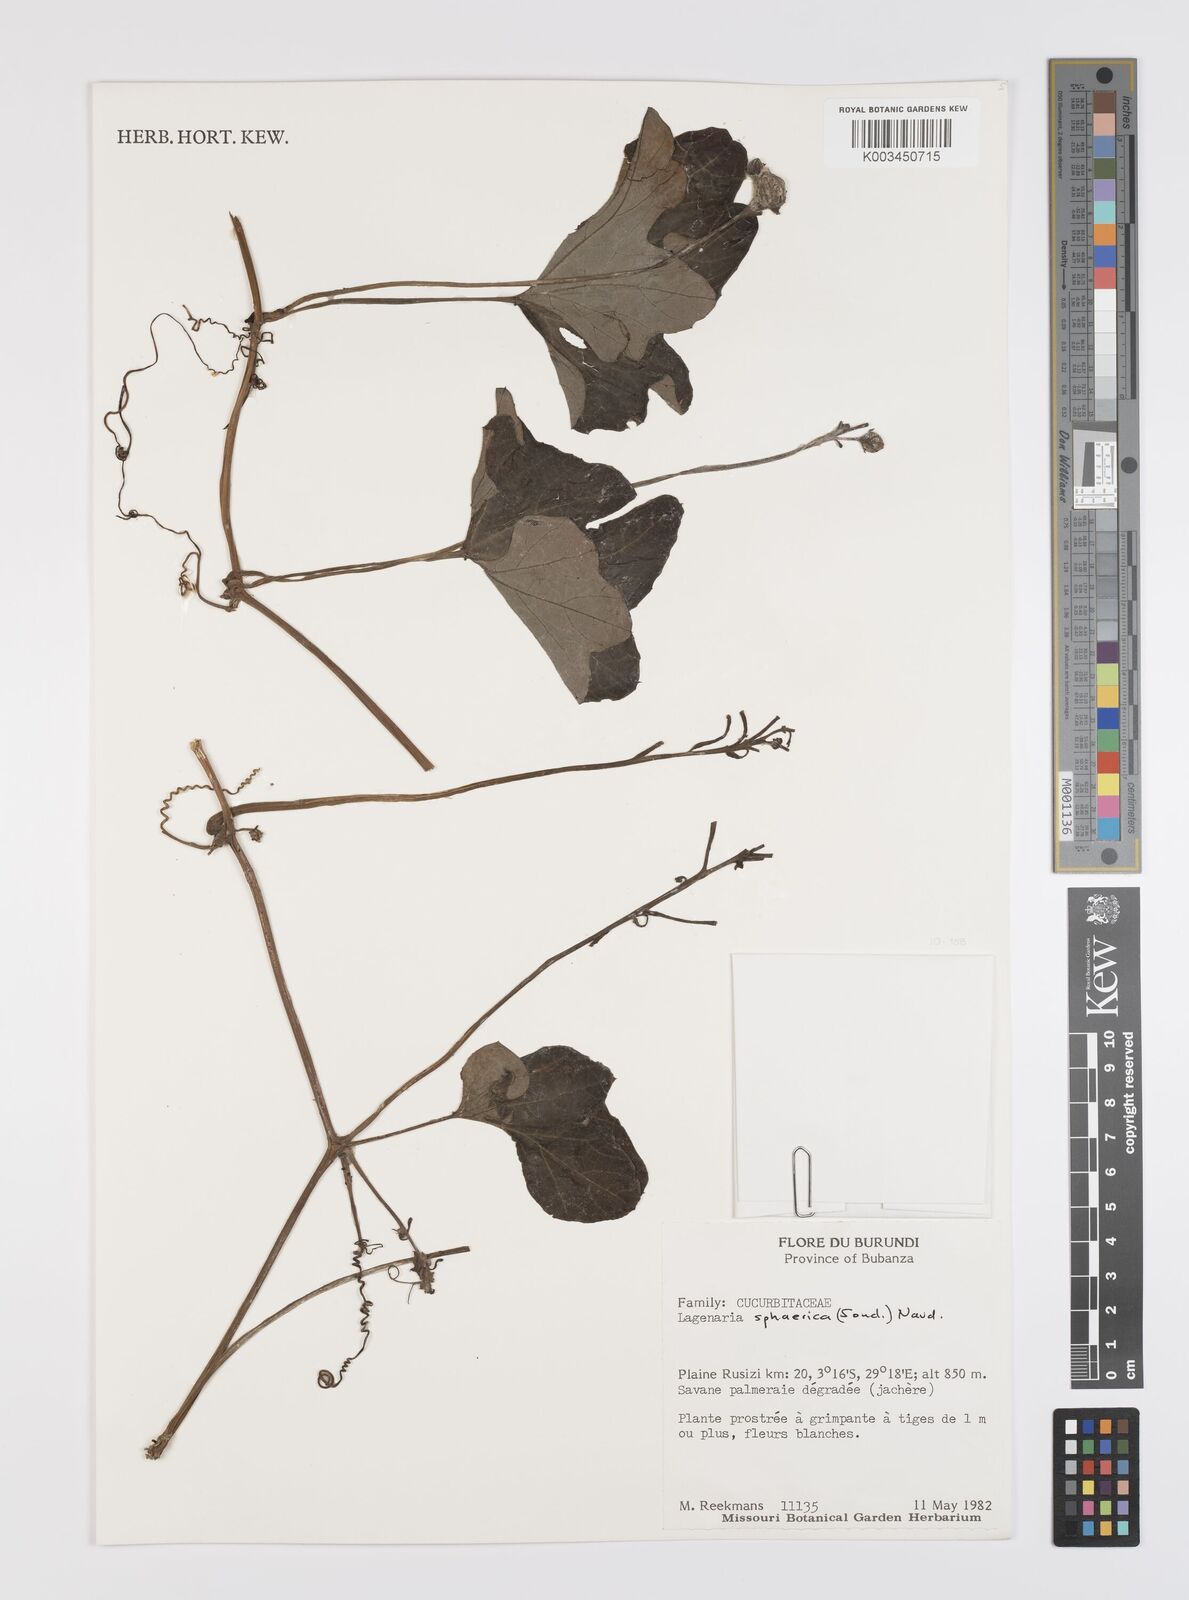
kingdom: Plantae
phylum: Tracheophyta
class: Magnoliopsida
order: Cucurbitales
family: Cucurbitaceae
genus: Lagenaria
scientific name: Lagenaria sphaerica
